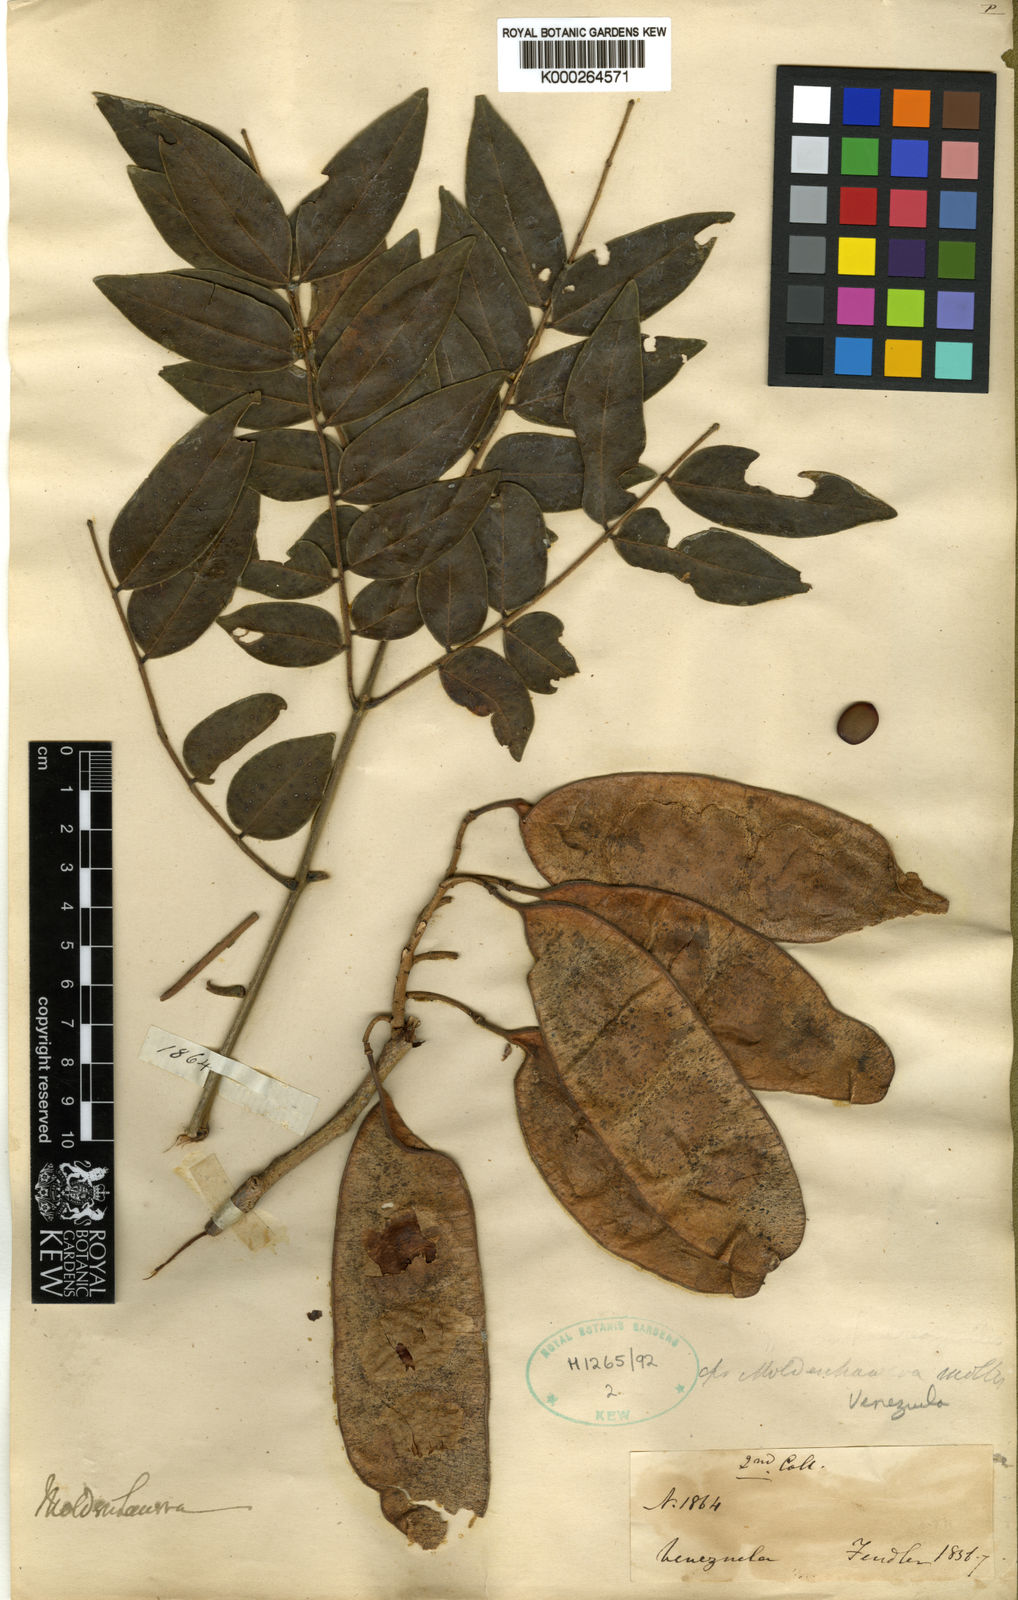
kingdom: Plantae
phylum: Tracheophyta
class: Magnoliopsida
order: Fabales
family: Fabaceae
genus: Coulteria
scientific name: Coulteria mollis
